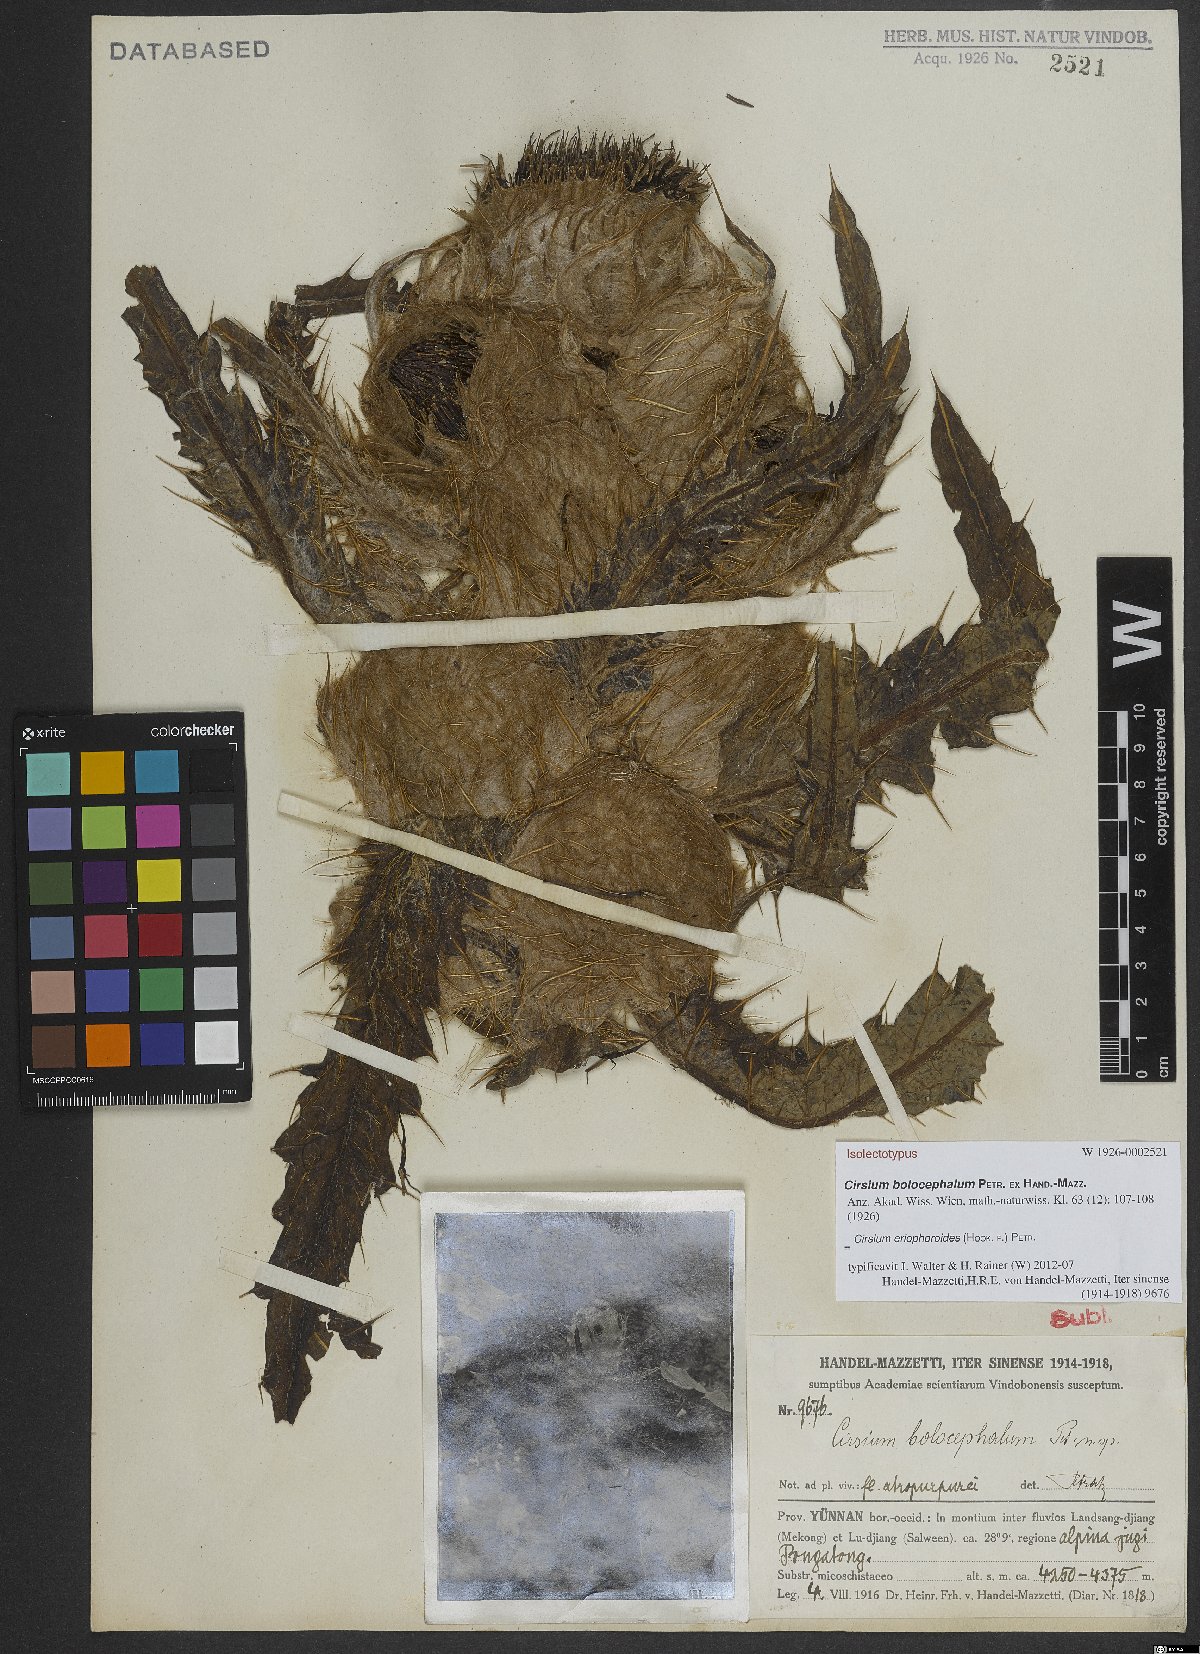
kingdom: Plantae
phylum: Tracheophyta
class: Magnoliopsida
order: Asterales
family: Asteraceae
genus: Cirsium
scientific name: Cirsium eriophoroides
